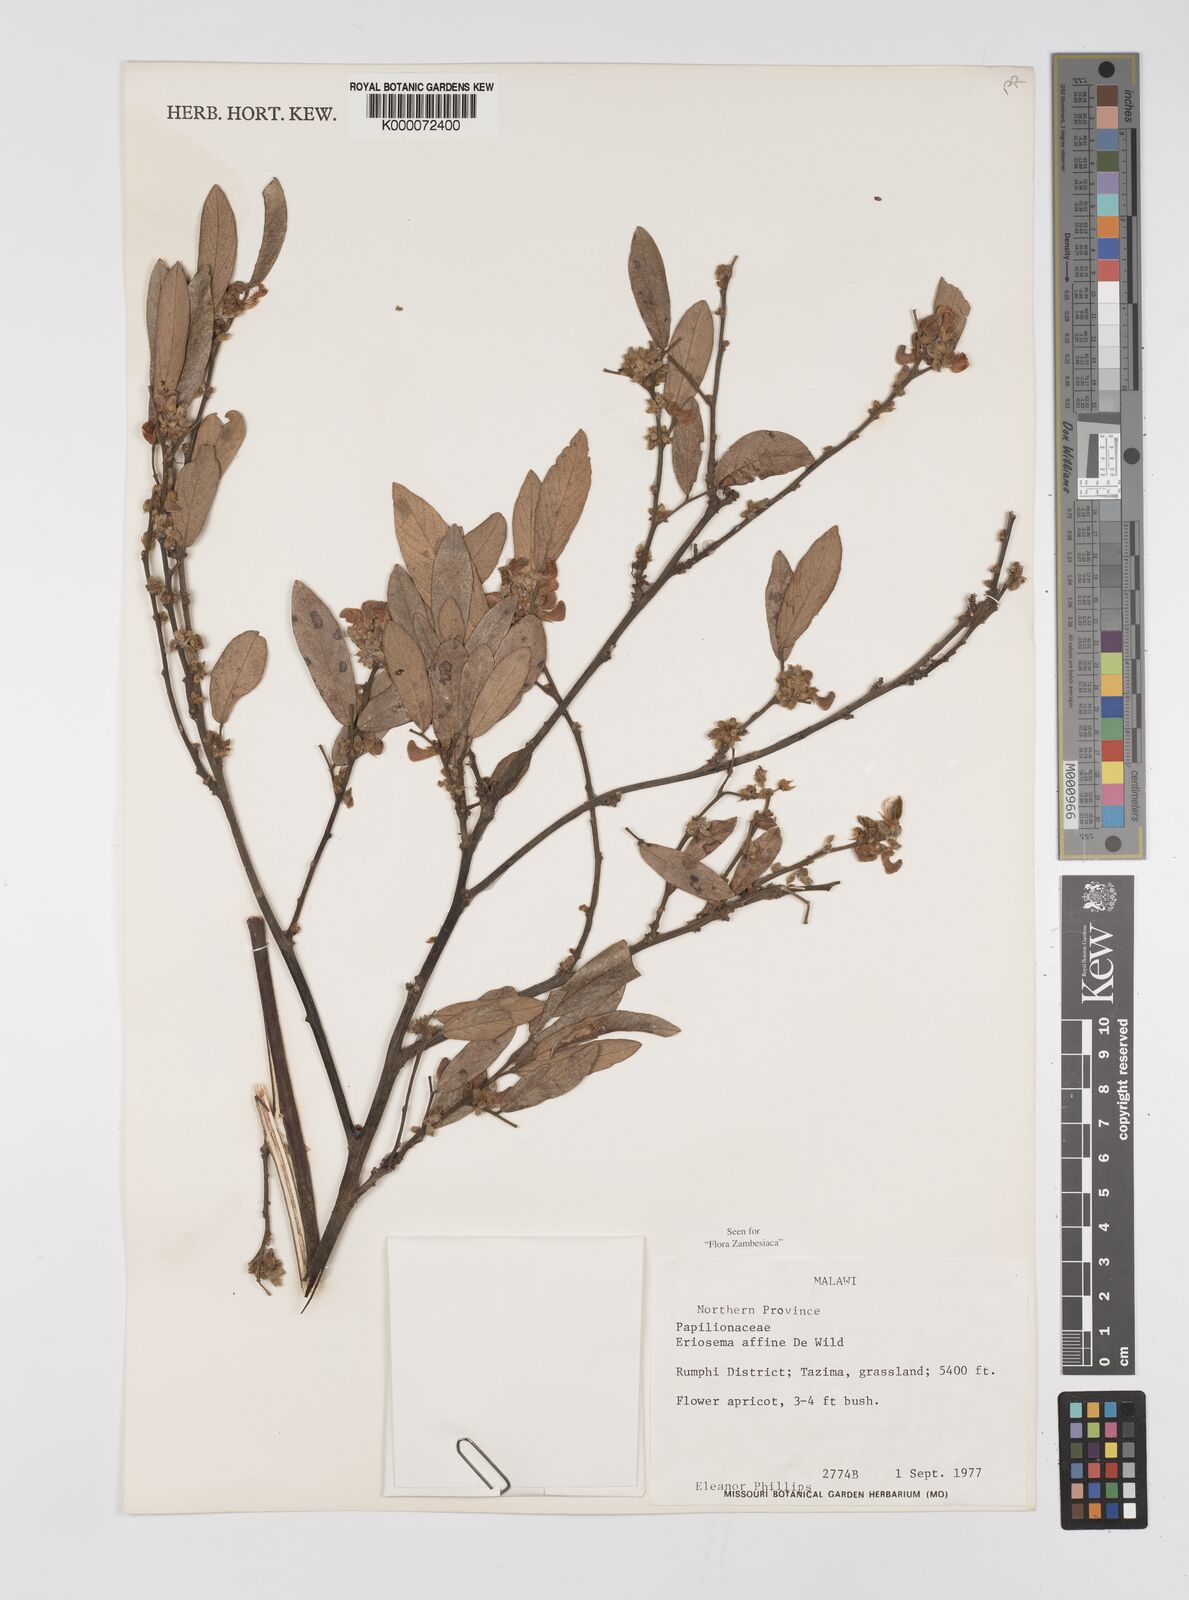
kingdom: Plantae
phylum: Tracheophyta
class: Magnoliopsida
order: Fabales
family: Fabaceae
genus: Eriosema
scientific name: Eriosema affine
